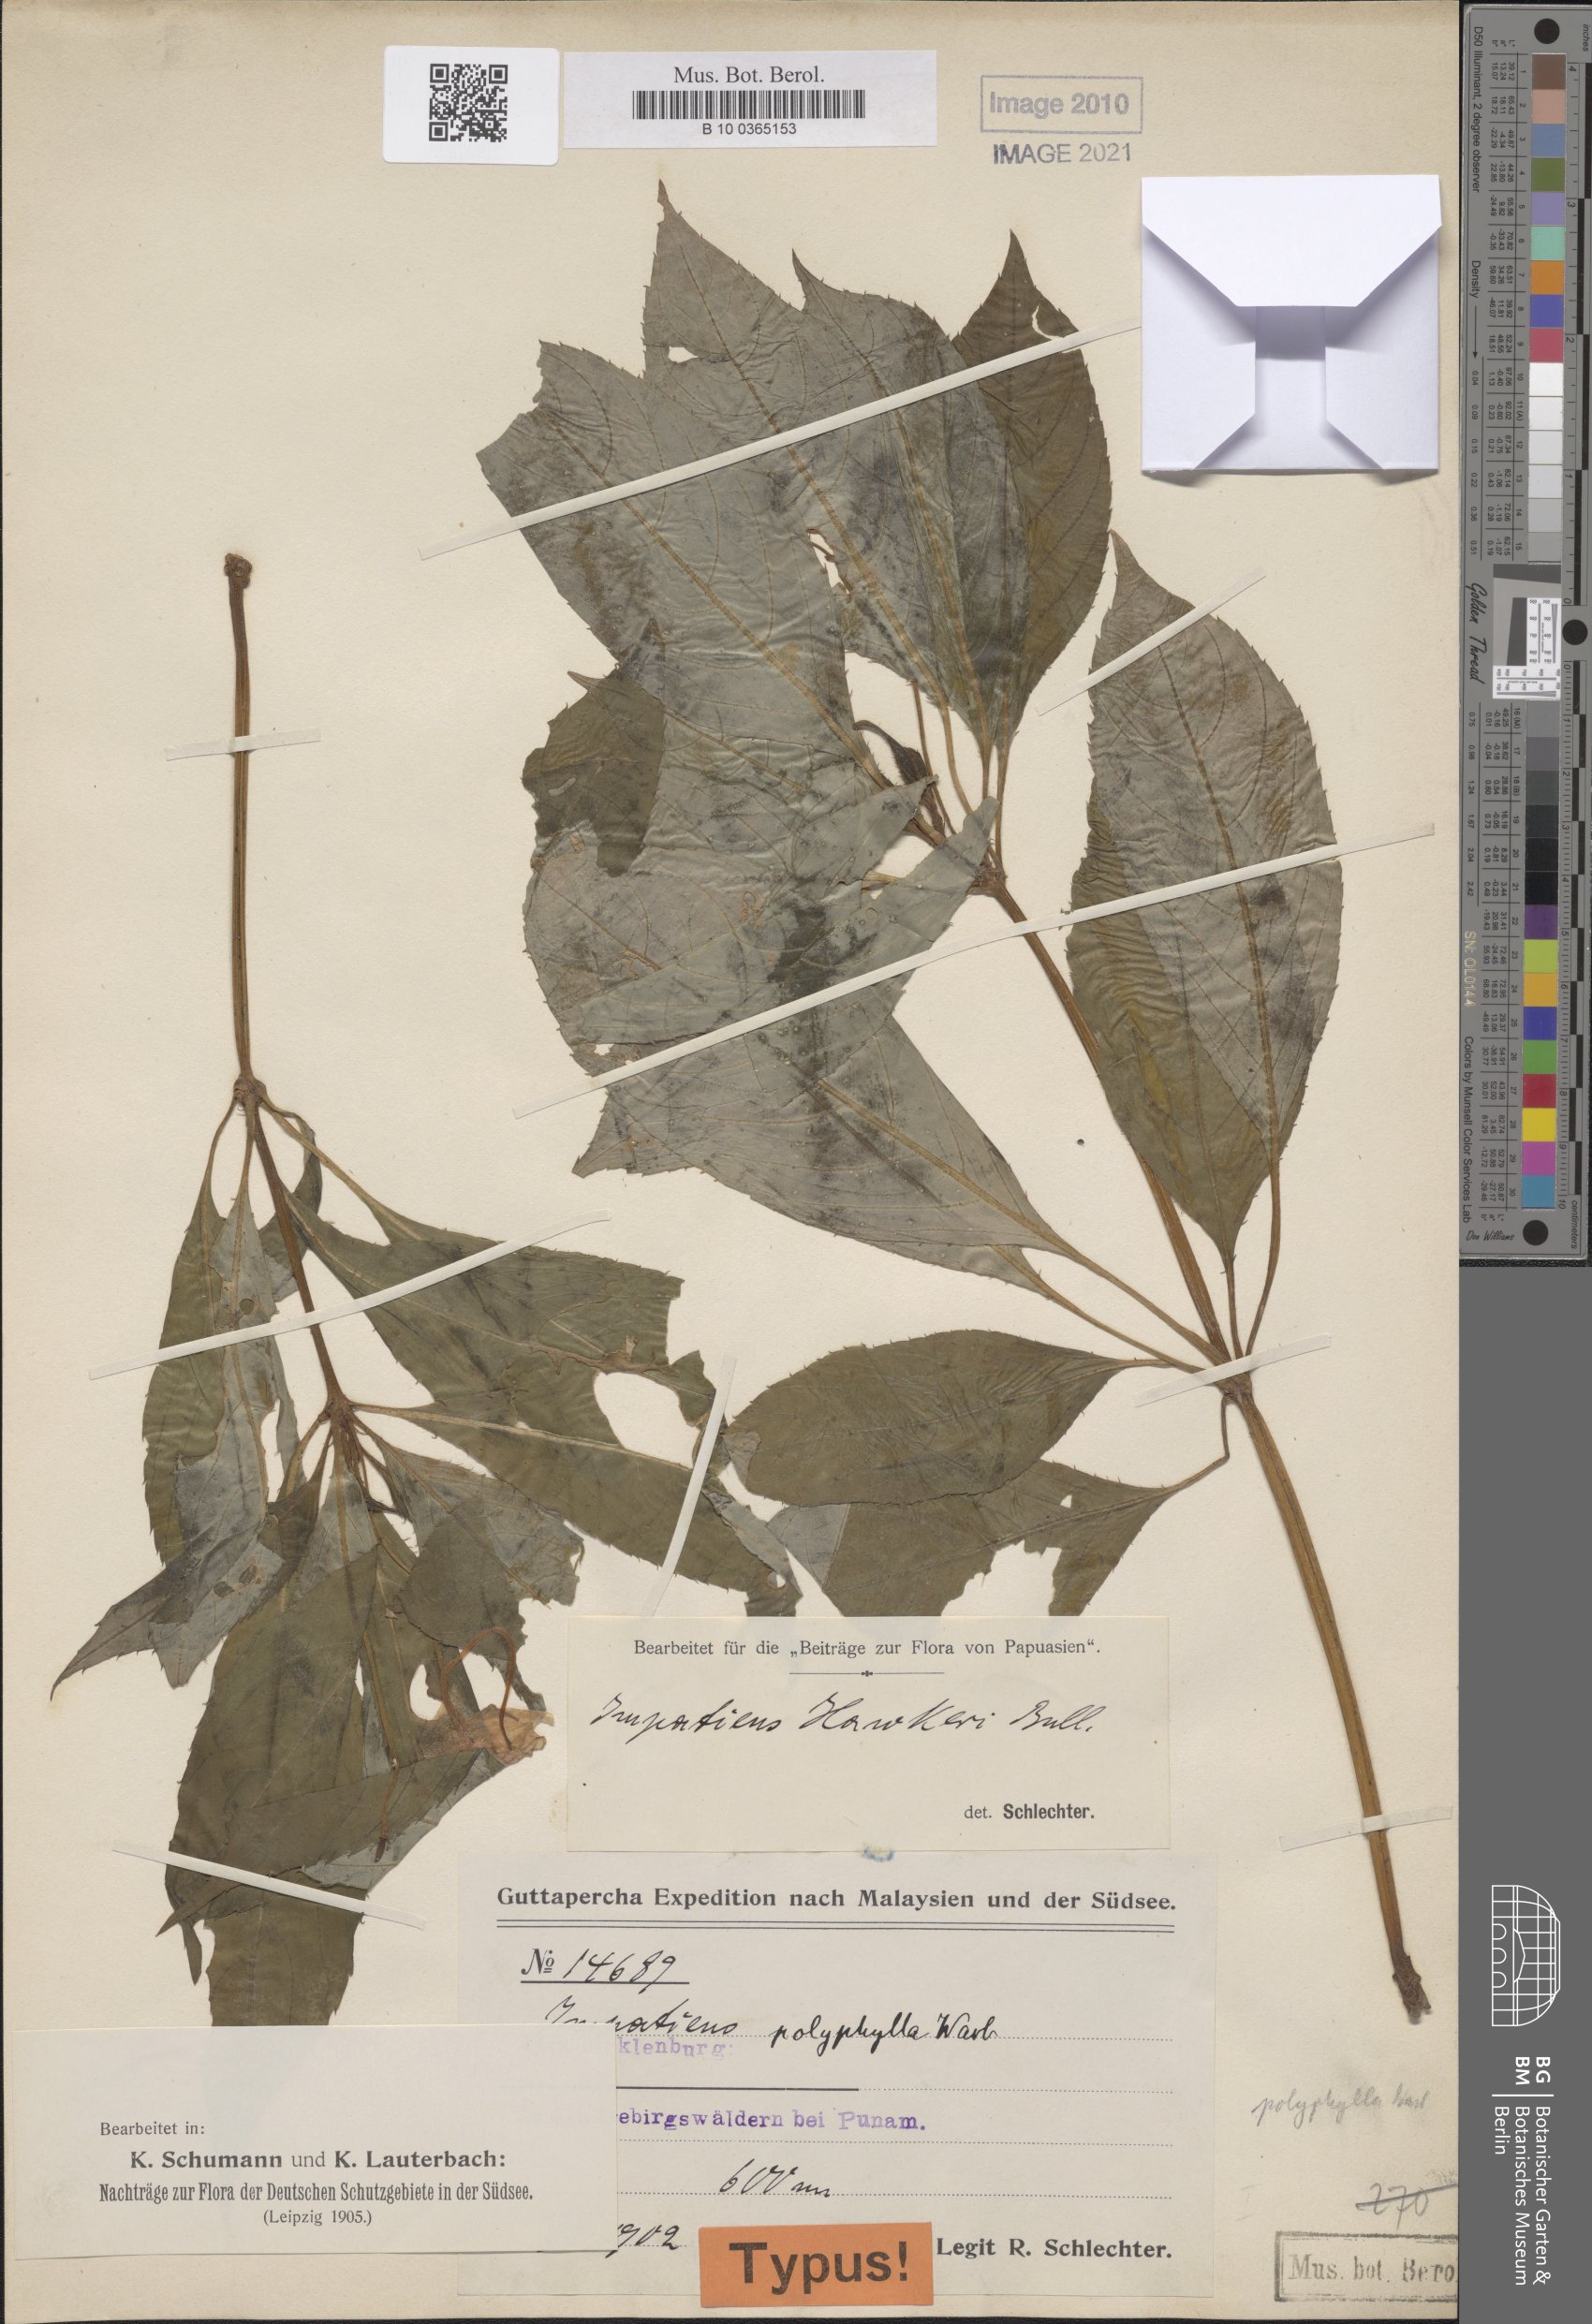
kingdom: Plantae
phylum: Tracheophyta
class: Magnoliopsida
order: Ericales
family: Balsaminaceae
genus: Impatiens
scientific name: Impatiens hawkeri
